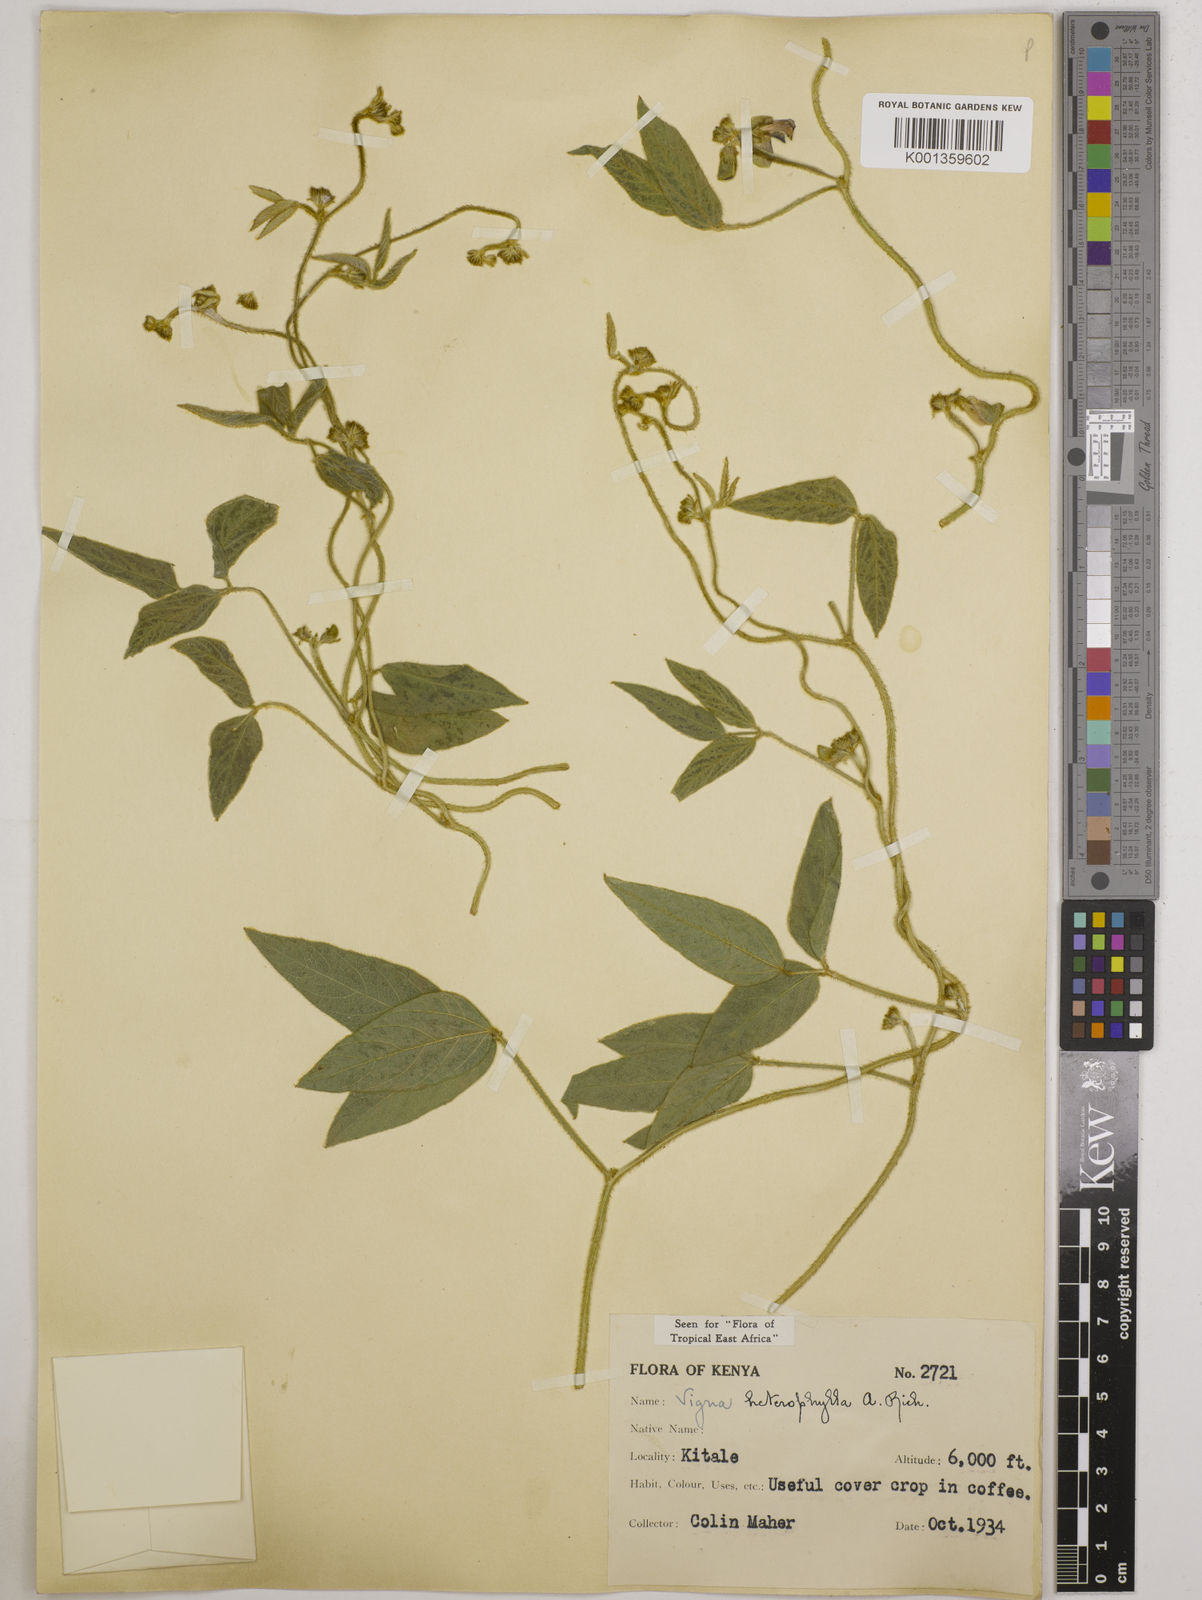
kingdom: Plantae
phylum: Tracheophyta
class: Magnoliopsida
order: Fabales
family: Fabaceae
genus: Vigna
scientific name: Vigna heterophylla
